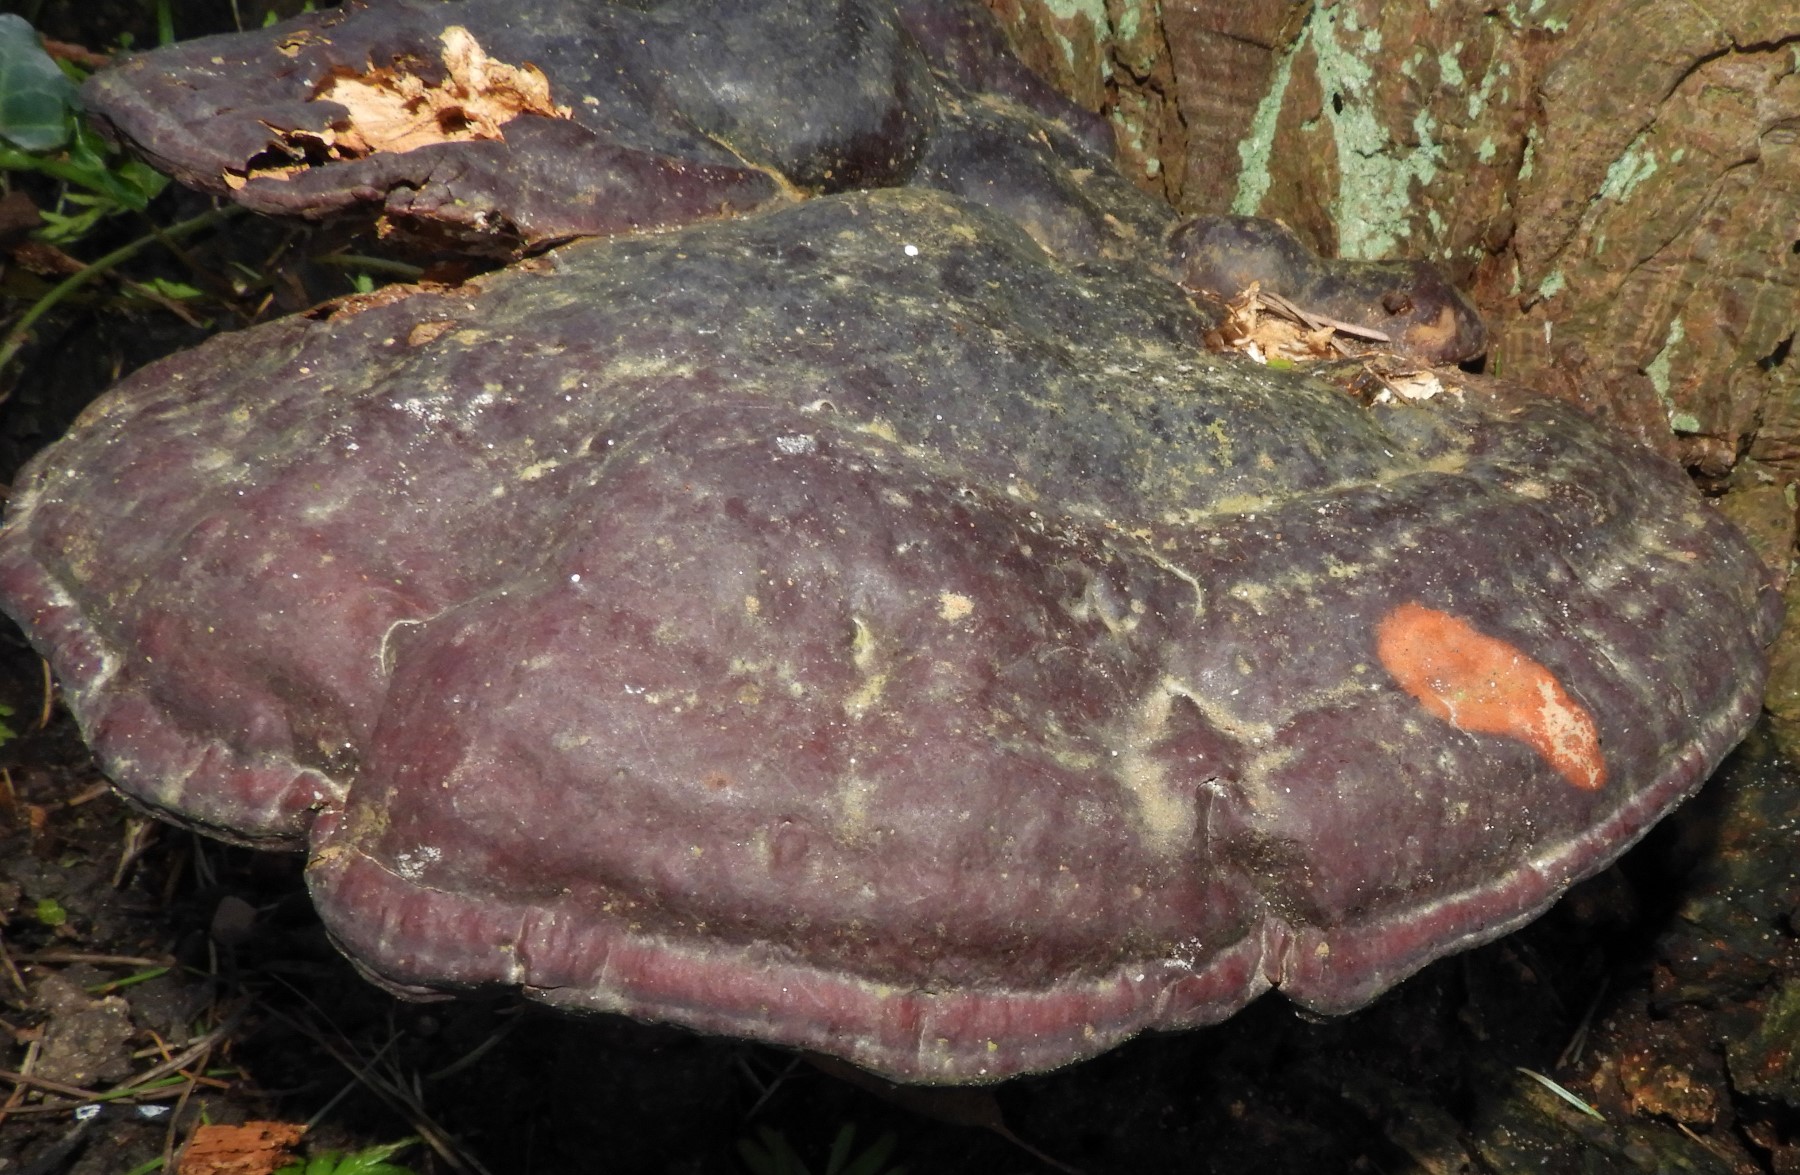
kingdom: Fungi
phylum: Basidiomycota
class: Agaricomycetes
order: Polyporales
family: Polyporaceae
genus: Ganoderma
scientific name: Ganoderma lucidum
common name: skinnende lakporesvamp
